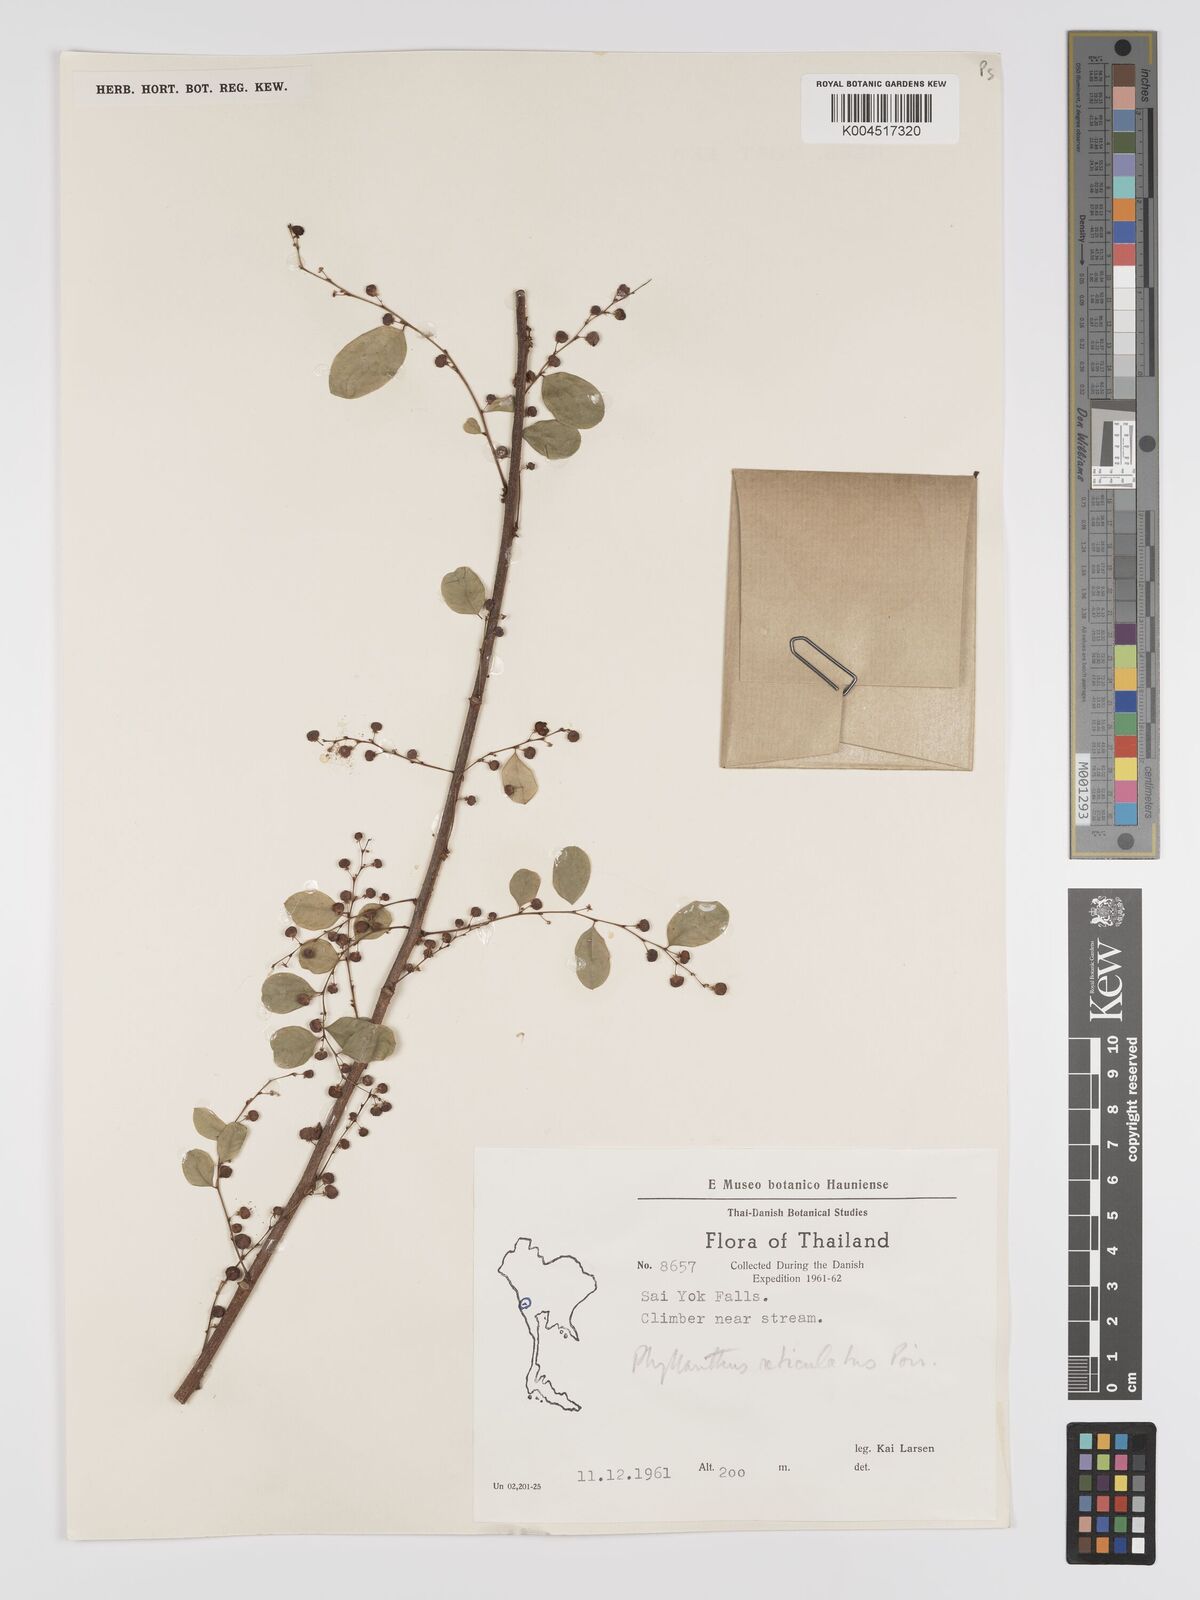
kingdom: Plantae
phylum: Tracheophyta
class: Magnoliopsida
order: Malpighiales
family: Phyllanthaceae
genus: Phyllanthus
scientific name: Phyllanthus reticulatus
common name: Potato bush
